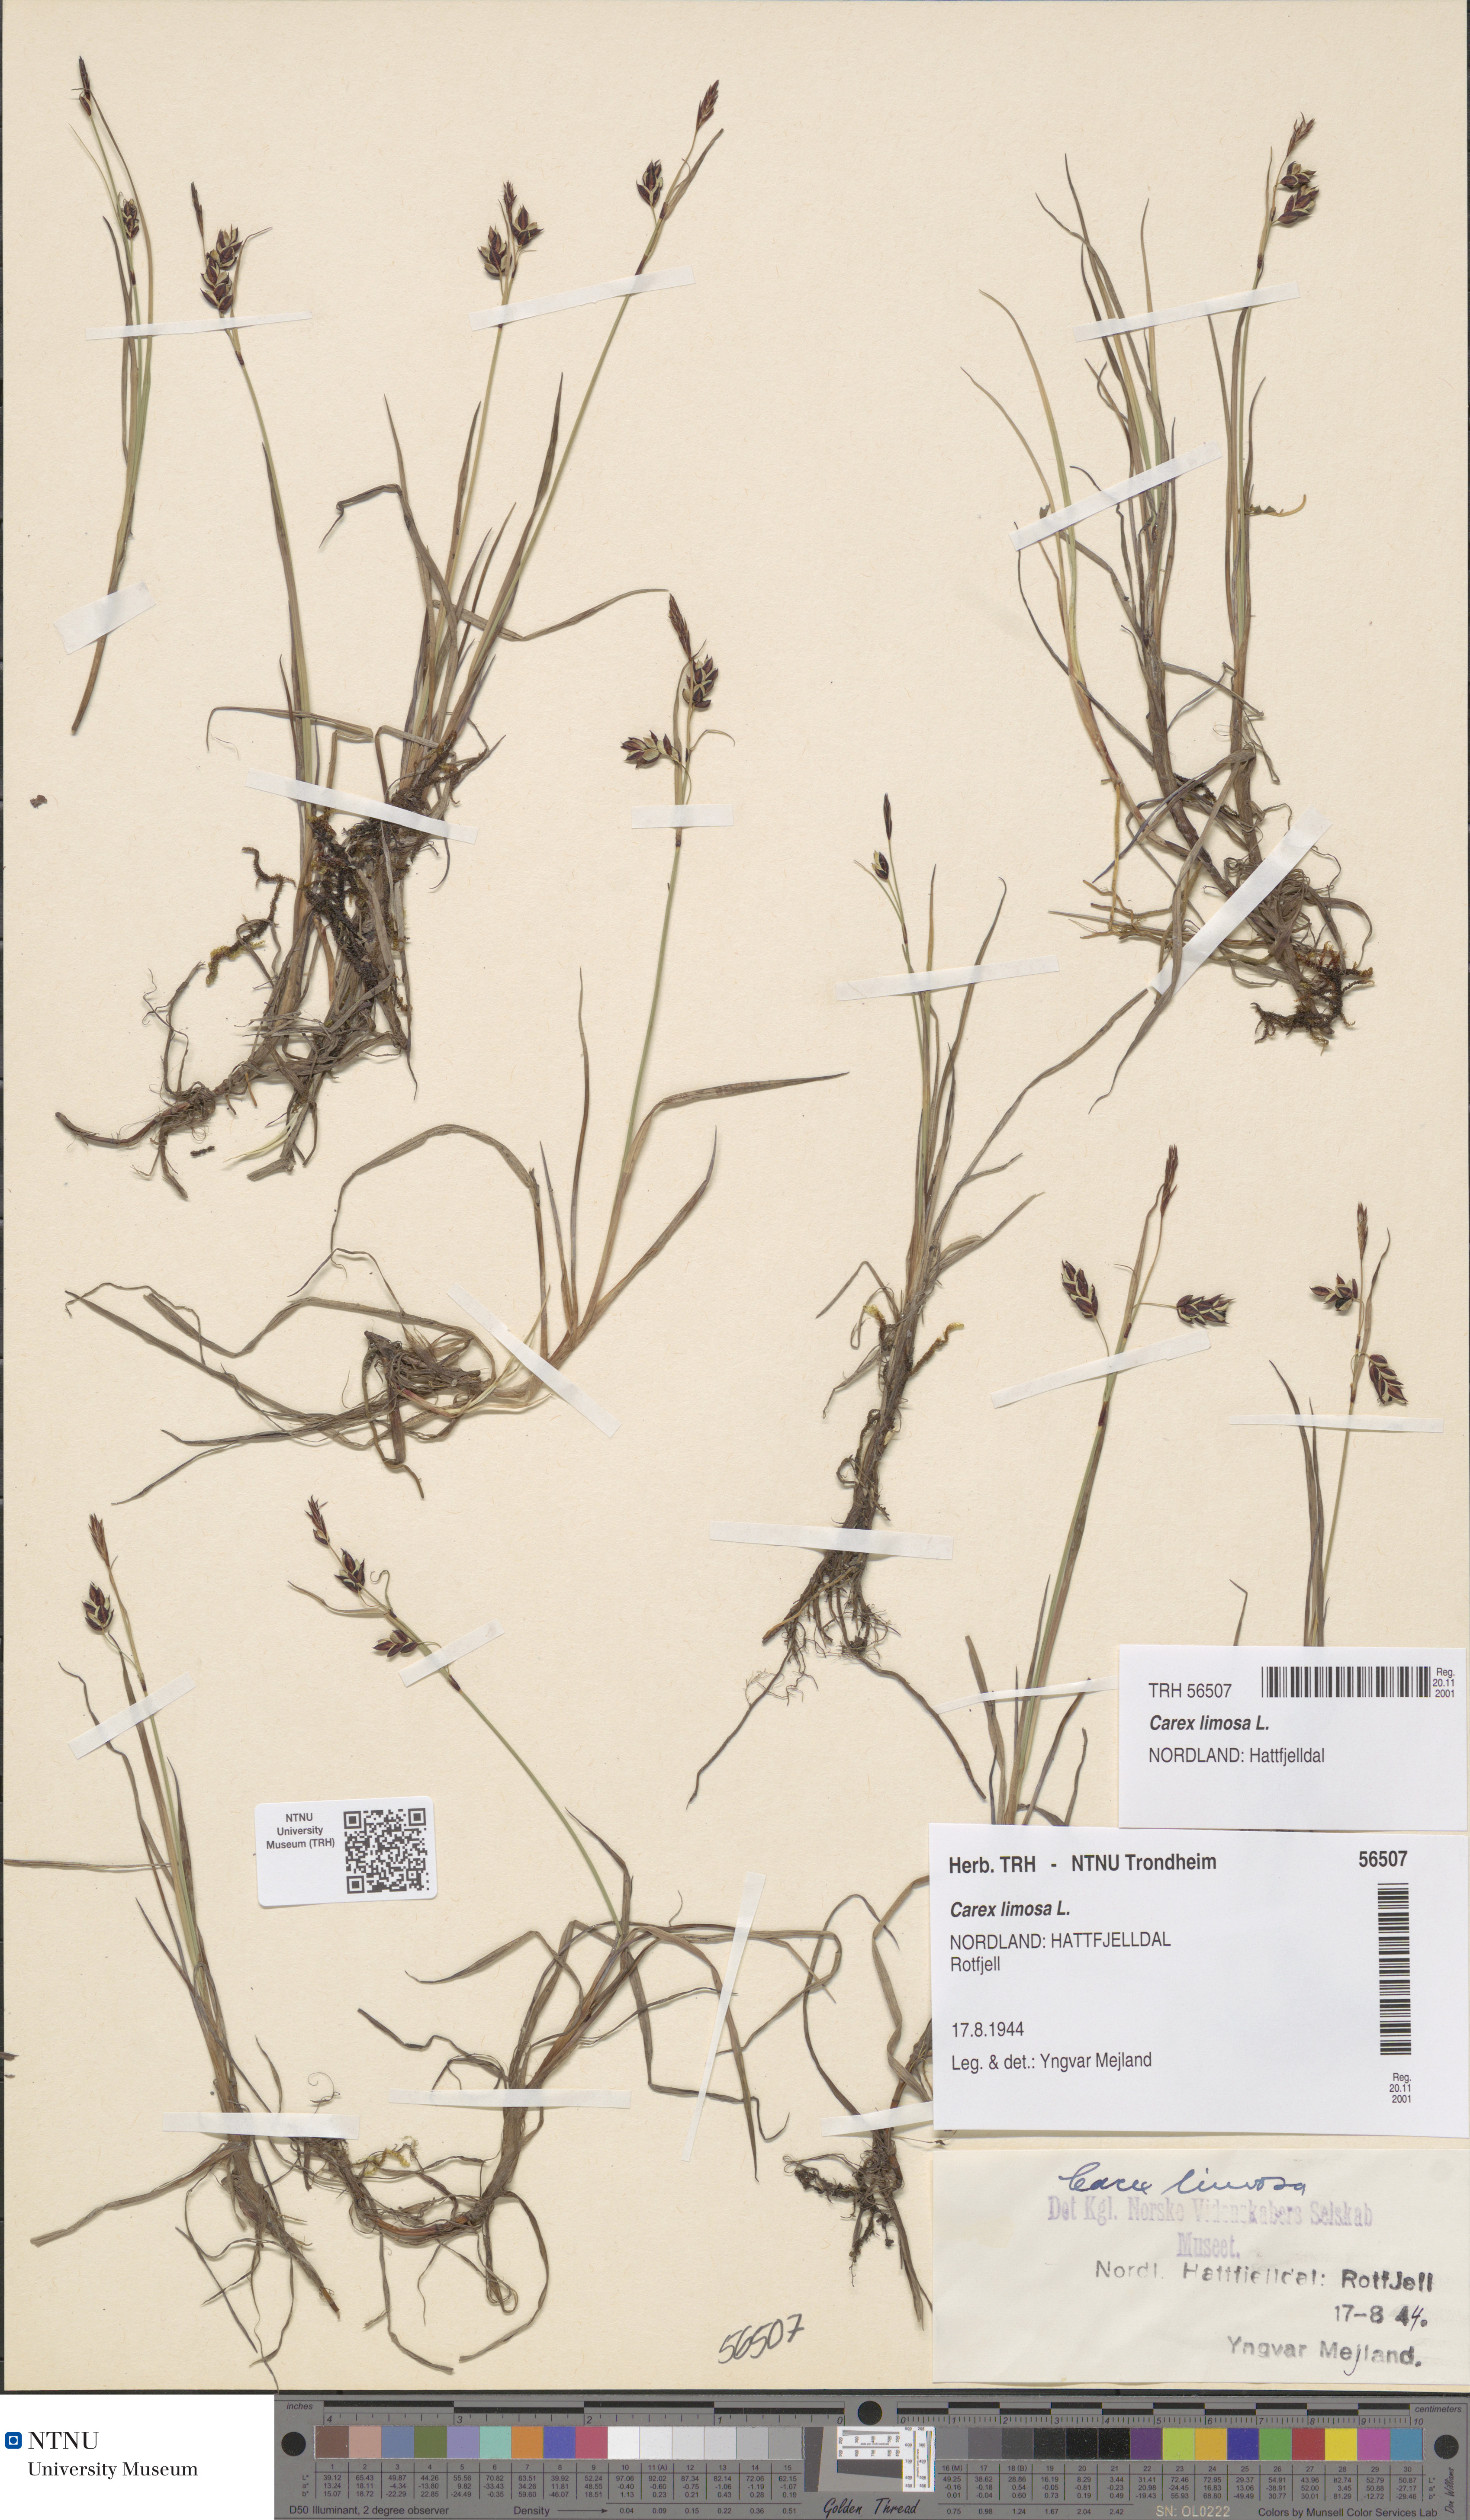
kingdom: Plantae
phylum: Tracheophyta
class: Liliopsida
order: Poales
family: Cyperaceae
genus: Carex
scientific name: Carex limosa
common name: Bog sedge
